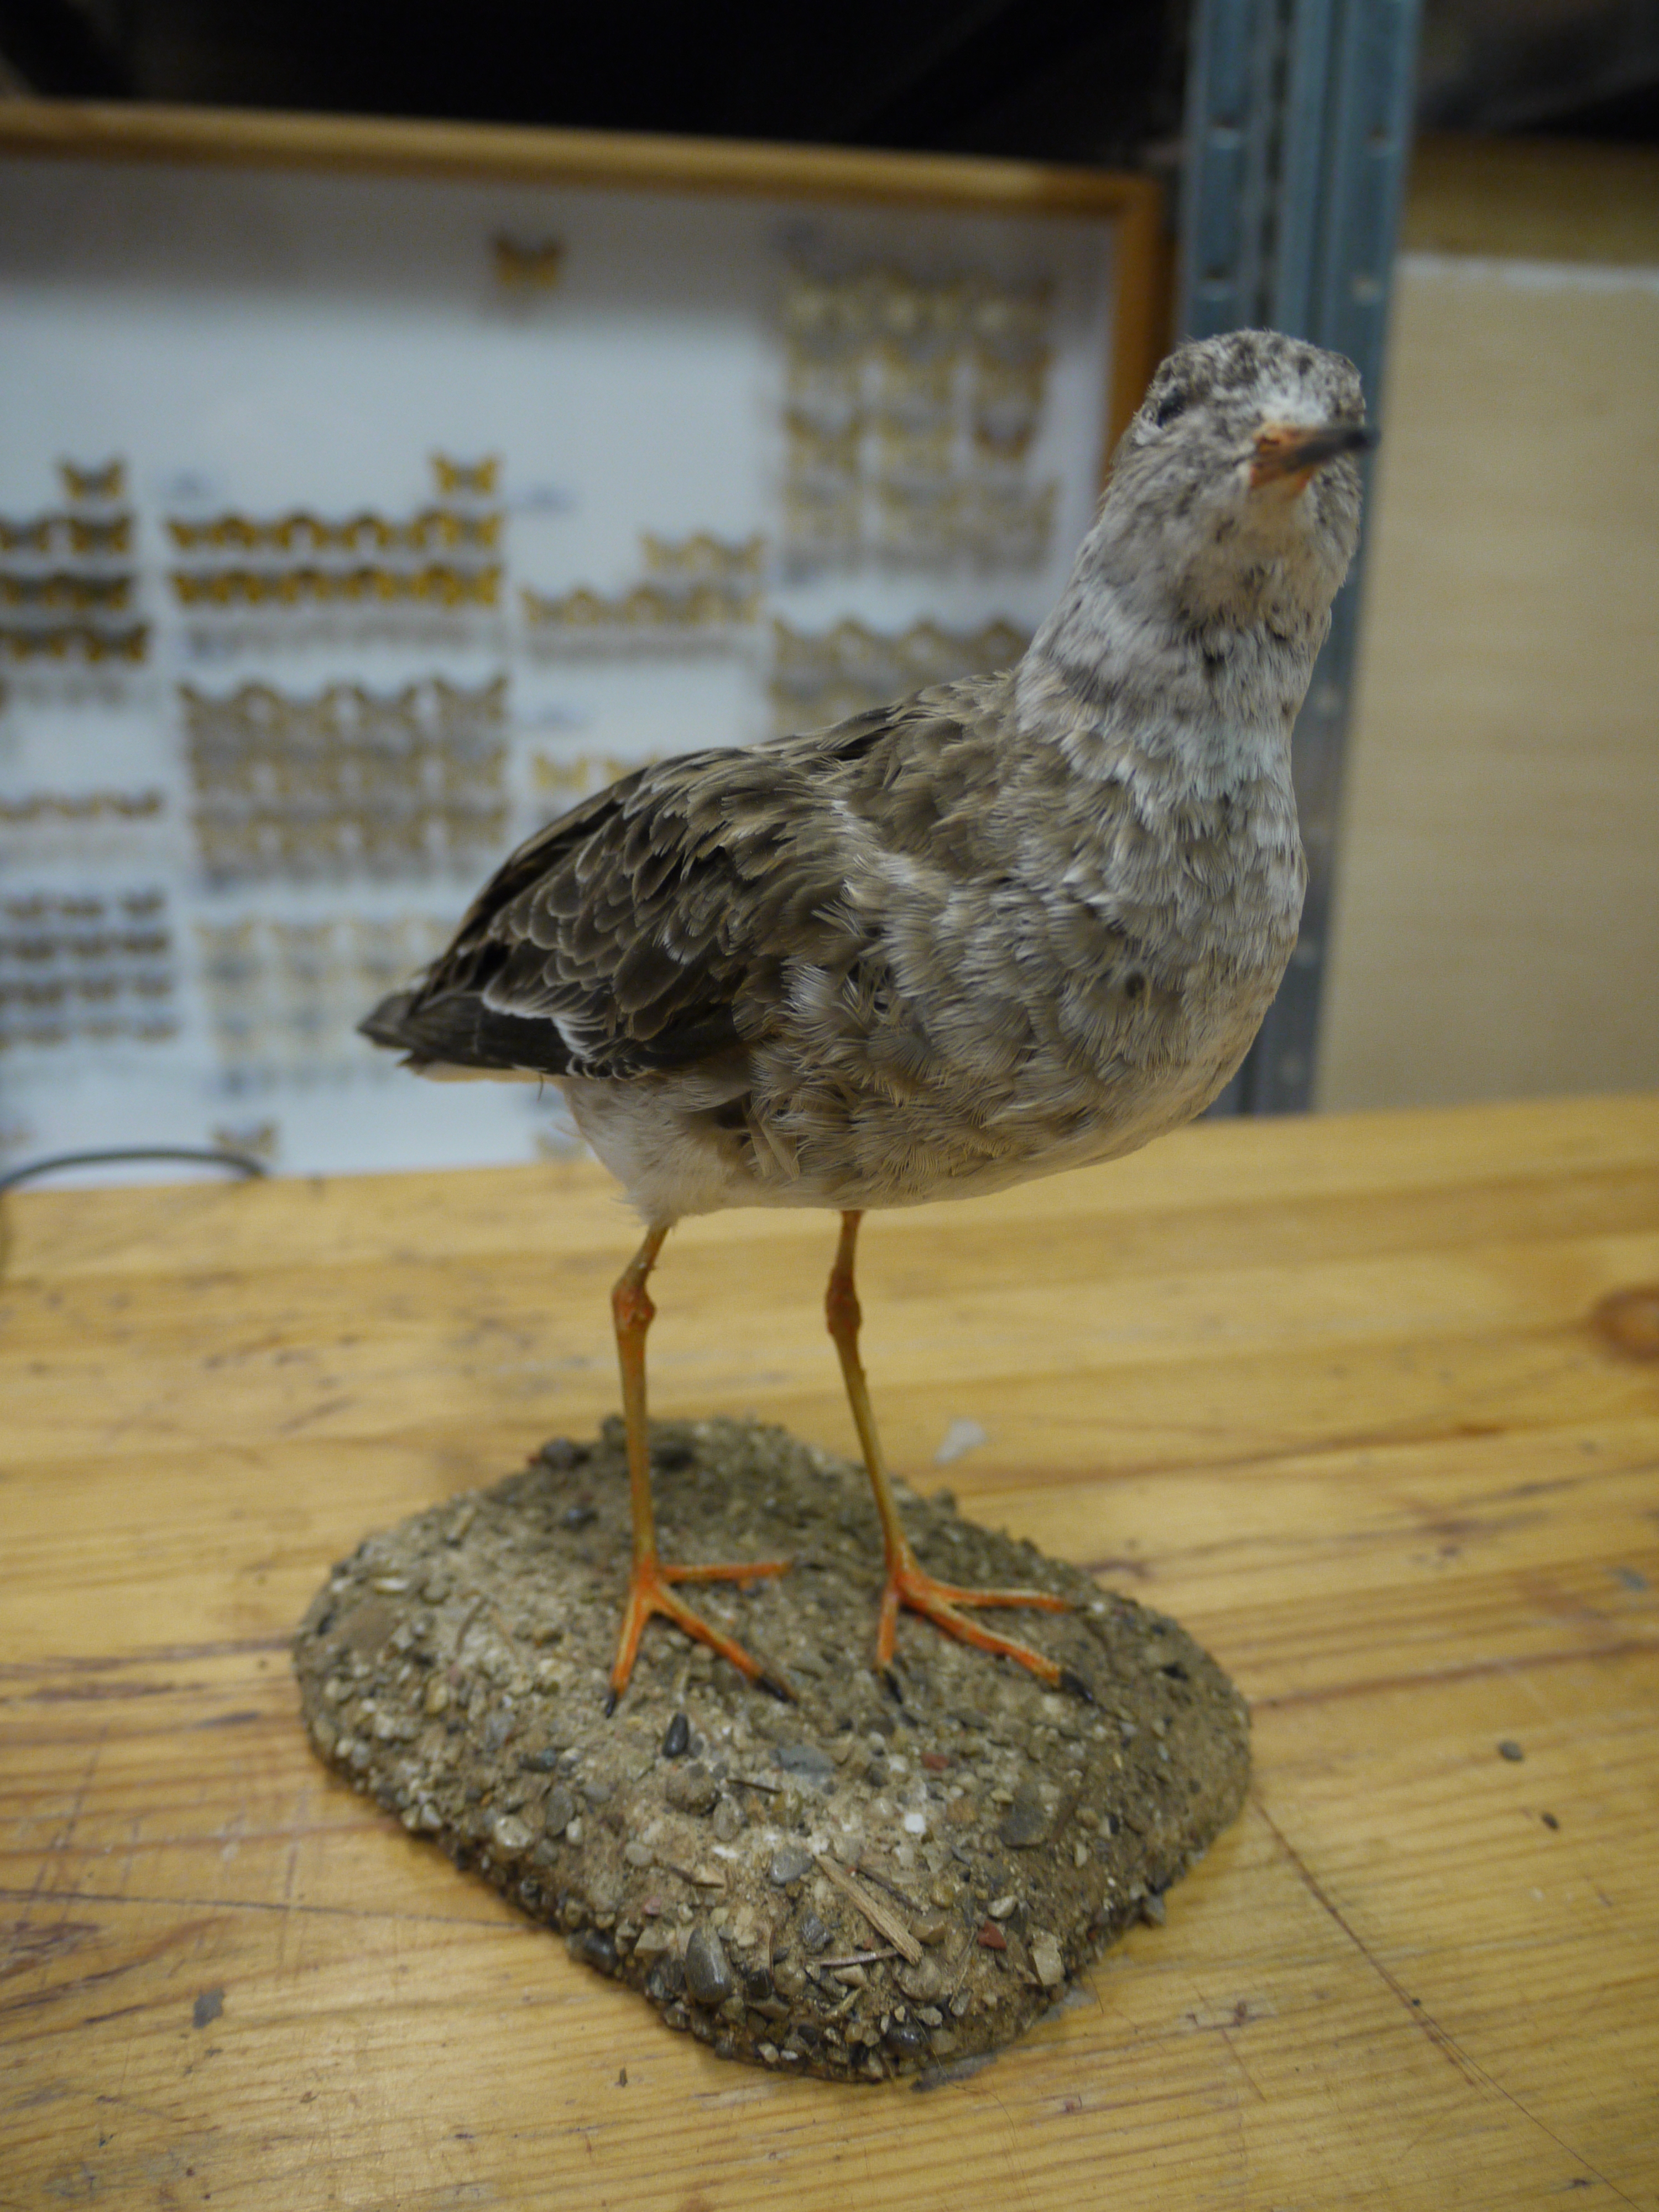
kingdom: Animalia
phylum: Chordata
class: Aves
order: Charadriiformes
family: Scolopacidae
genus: Calidris
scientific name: Calidris pugnax
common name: Ruff
